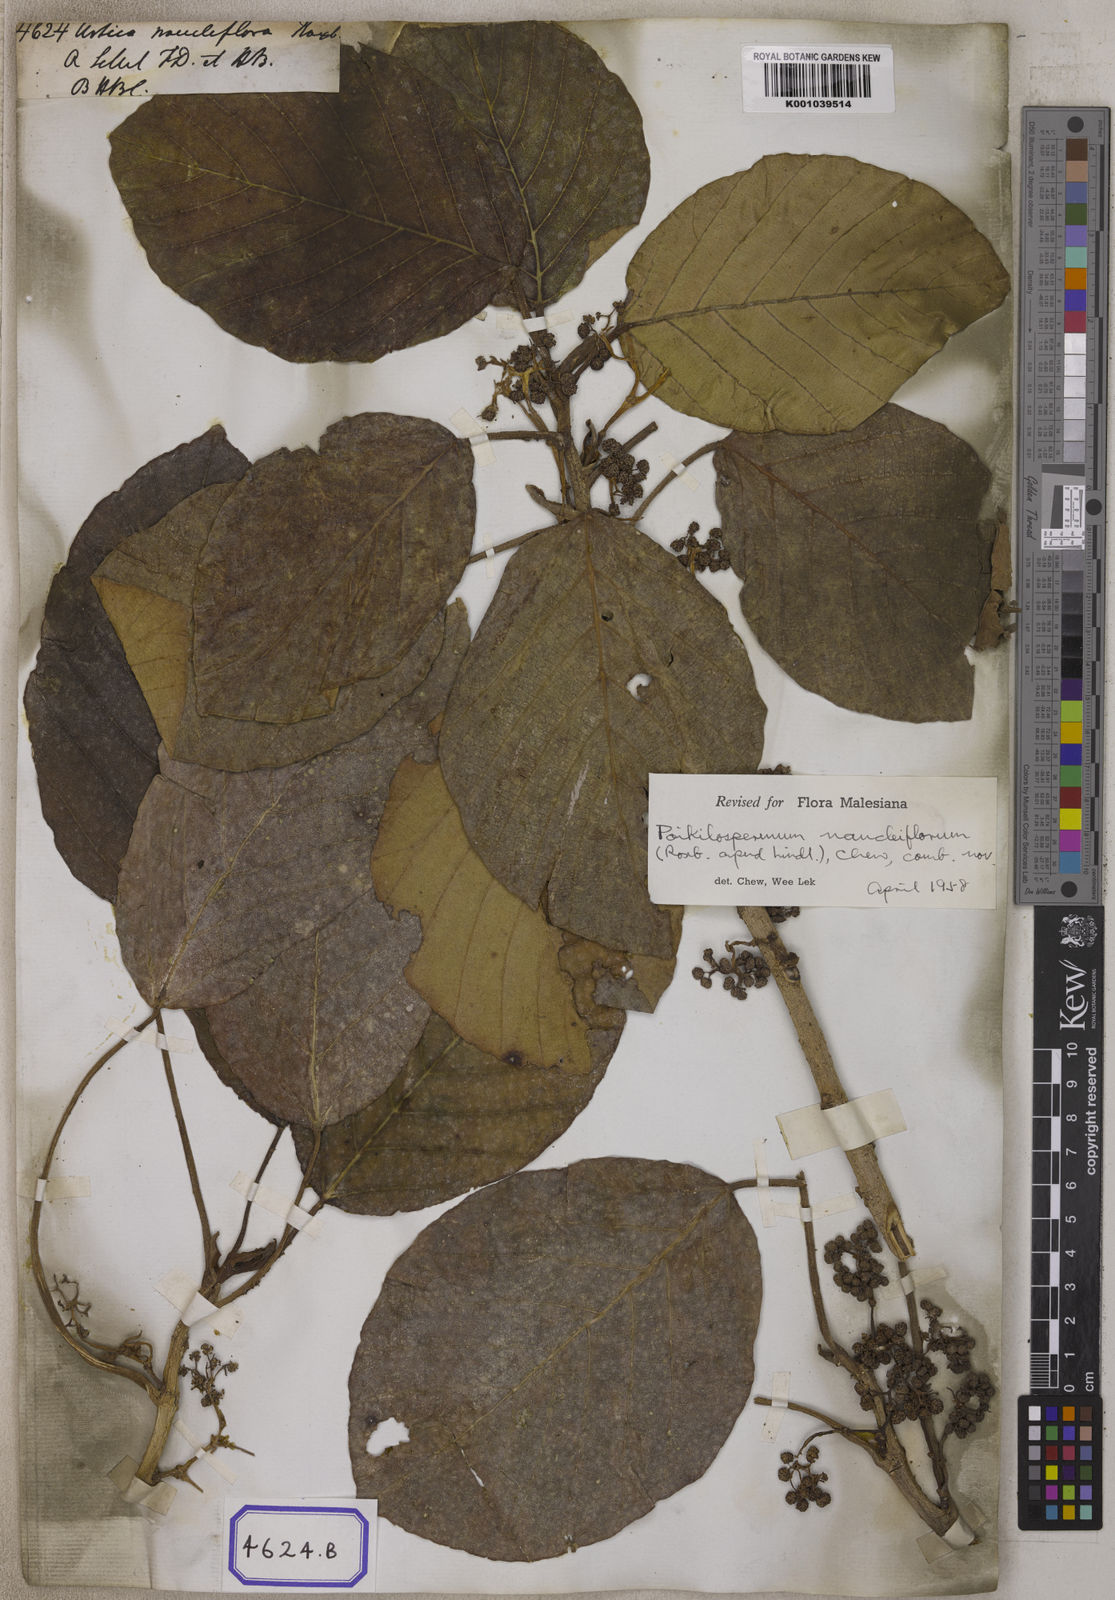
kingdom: Plantae
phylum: Tracheophyta
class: Magnoliopsida
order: Rosales
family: Urticaceae
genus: Urtica
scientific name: Urtica naucliflora
